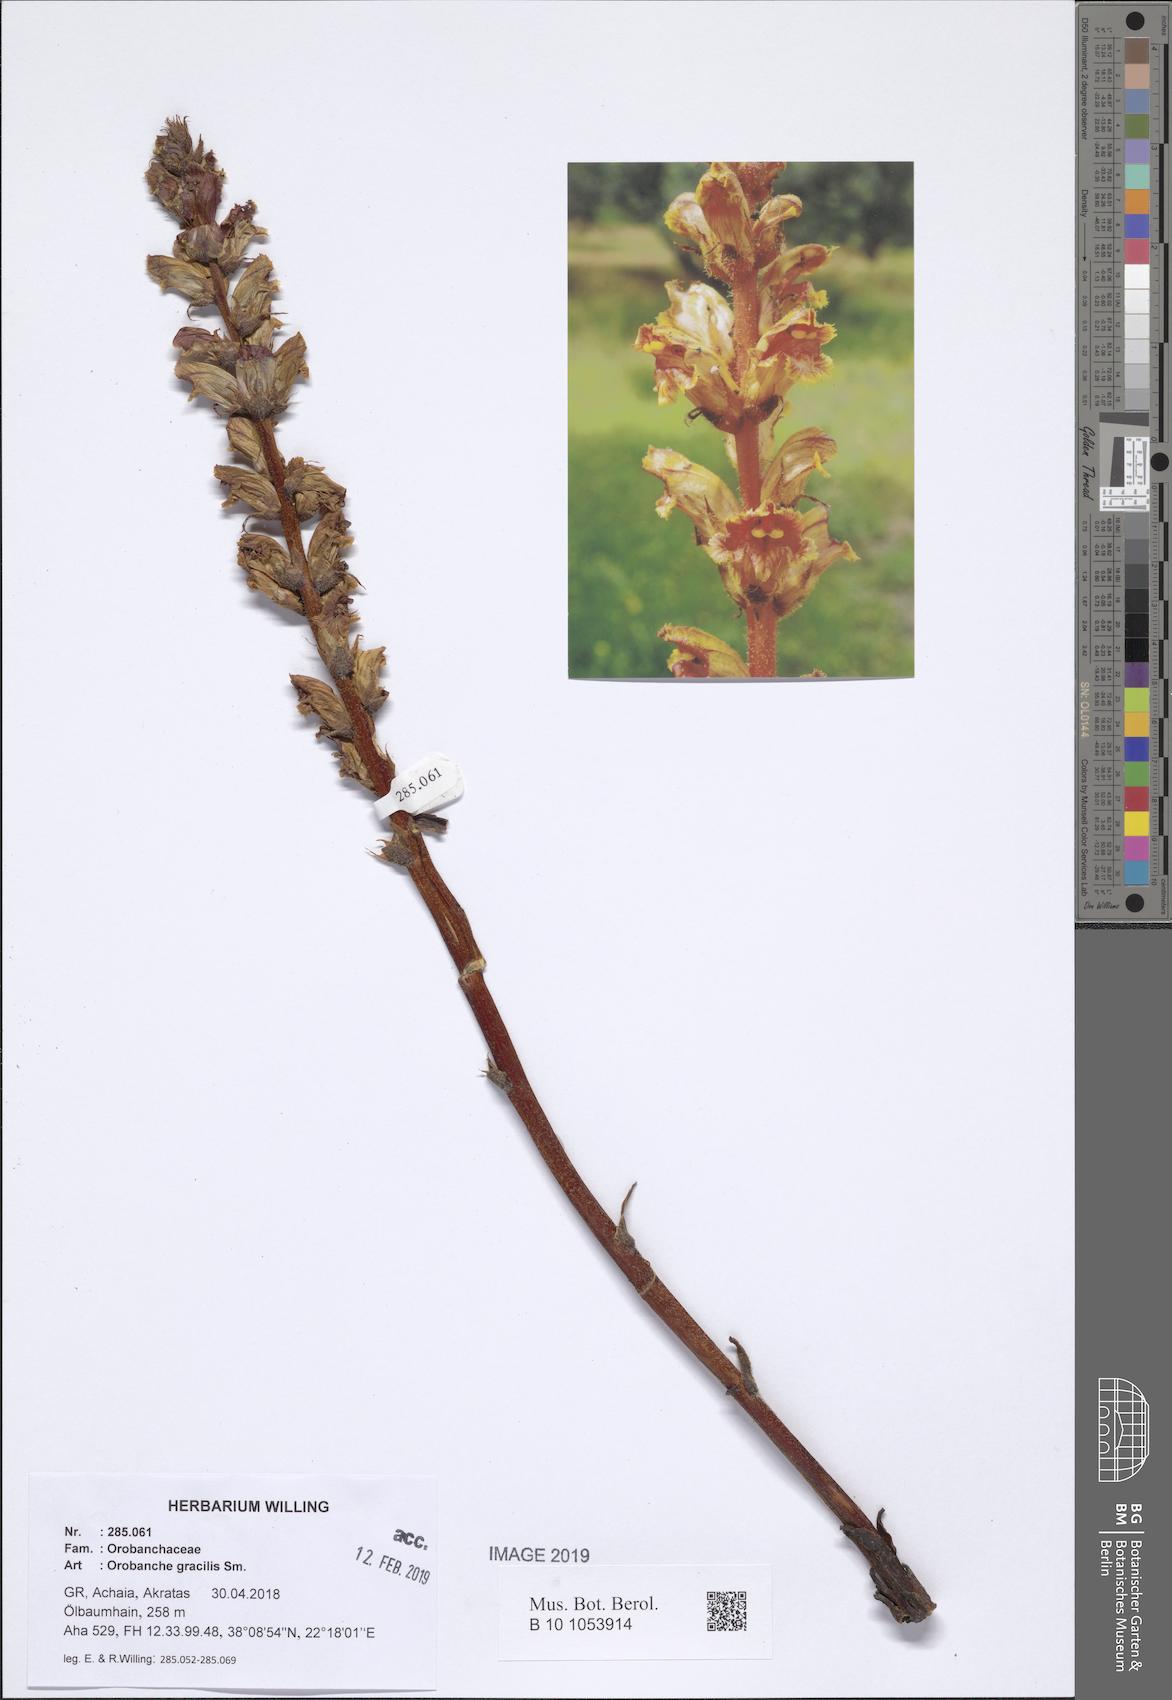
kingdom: Plantae
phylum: Tracheophyta
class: Magnoliopsida
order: Lamiales
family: Orobanchaceae
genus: Orobanche
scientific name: Orobanche gracilis
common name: Slender broomrape
